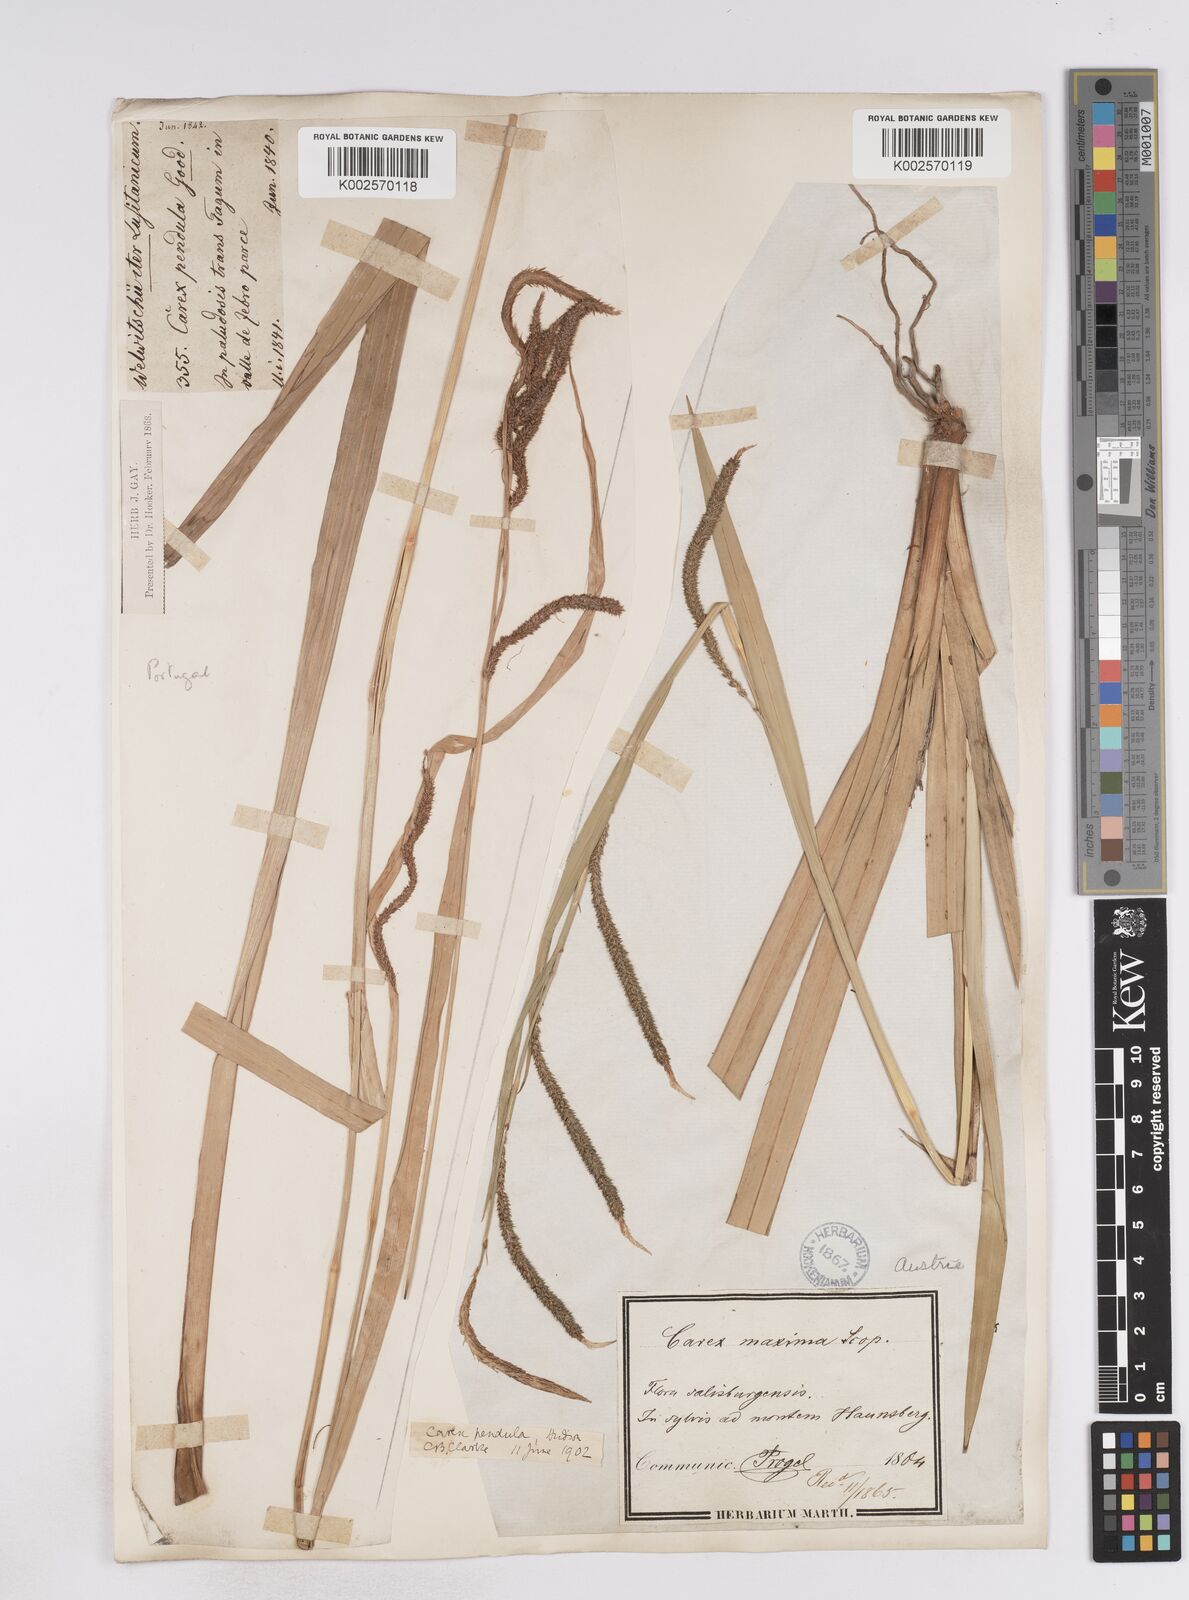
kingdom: Plantae
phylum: Tracheophyta
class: Liliopsida
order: Poales
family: Cyperaceae
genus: Carex
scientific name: Carex pendula
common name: Pendulous sedge
